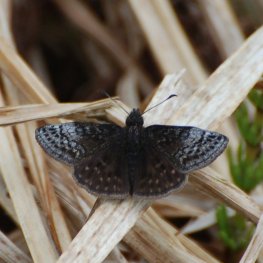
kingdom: Animalia
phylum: Arthropoda
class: Insecta
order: Lepidoptera
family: Hesperiidae
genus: Erynnis
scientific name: Erynnis icelus
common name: Dreamy Duskywing
